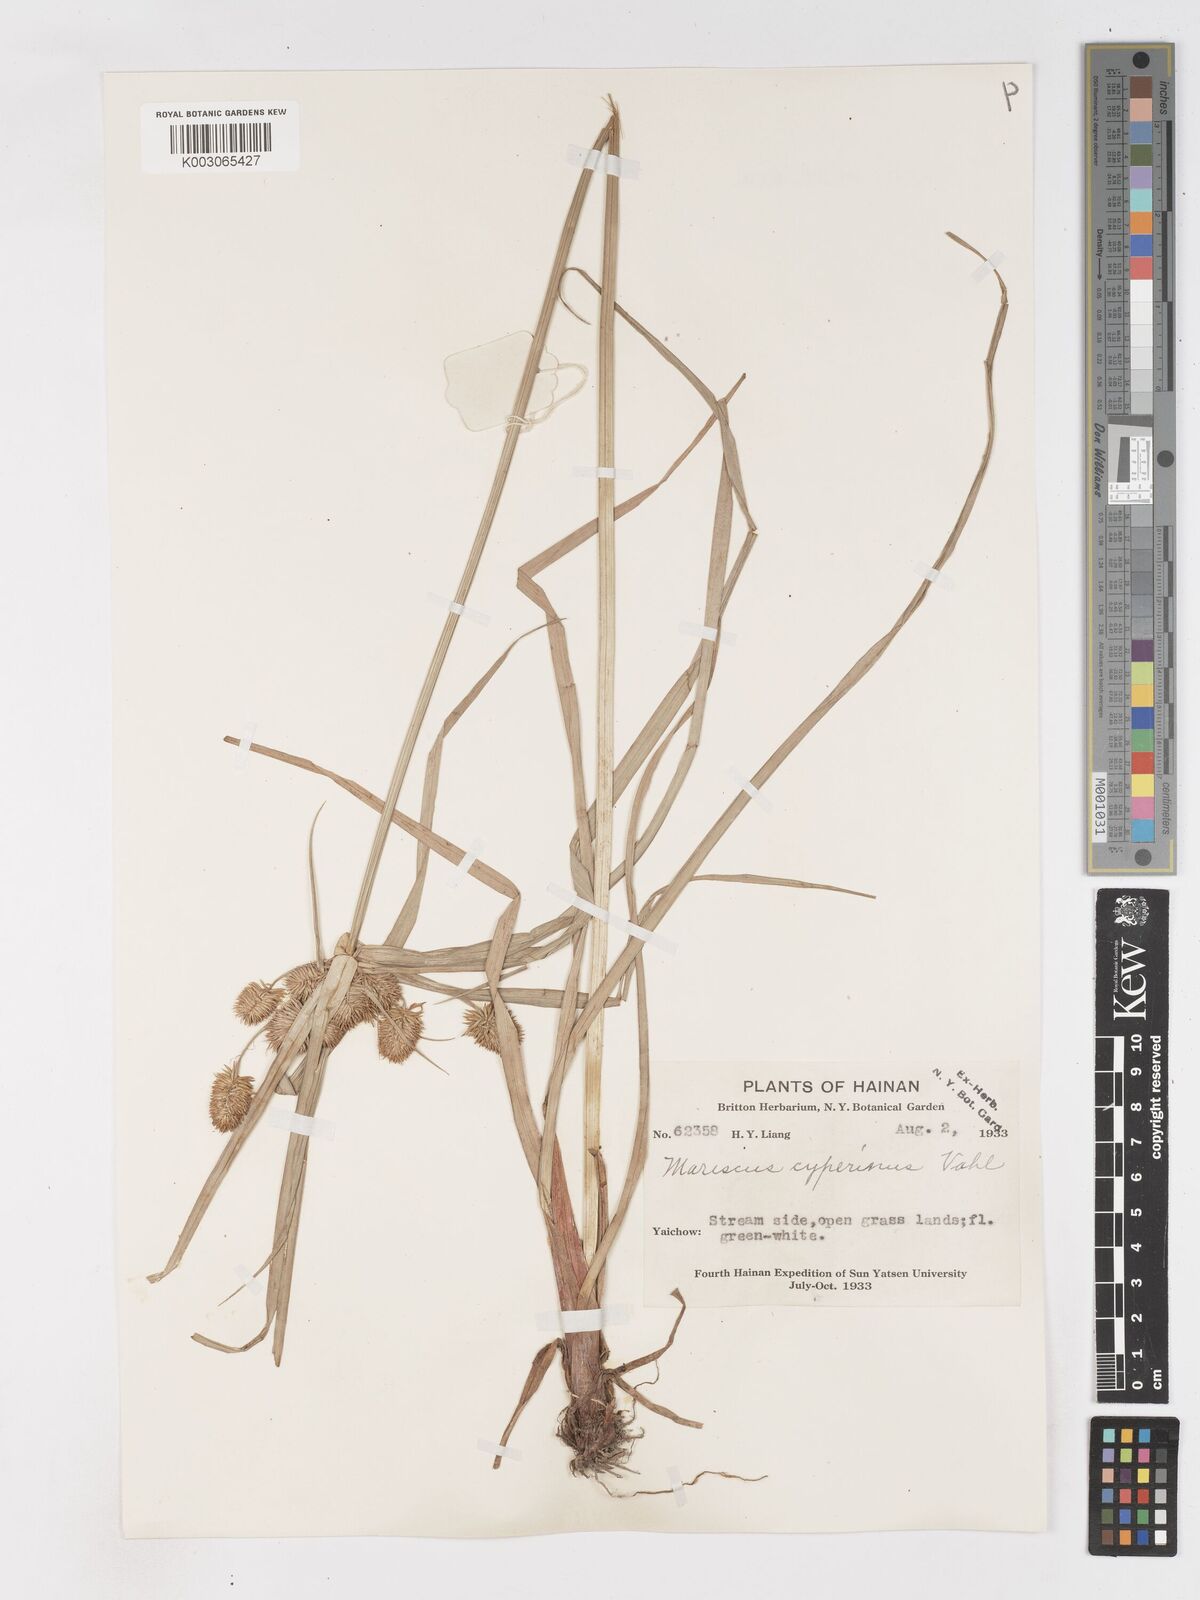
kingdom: Plantae
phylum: Tracheophyta
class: Liliopsida
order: Poales
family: Cyperaceae
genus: Cyperus
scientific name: Cyperus cyperinus
